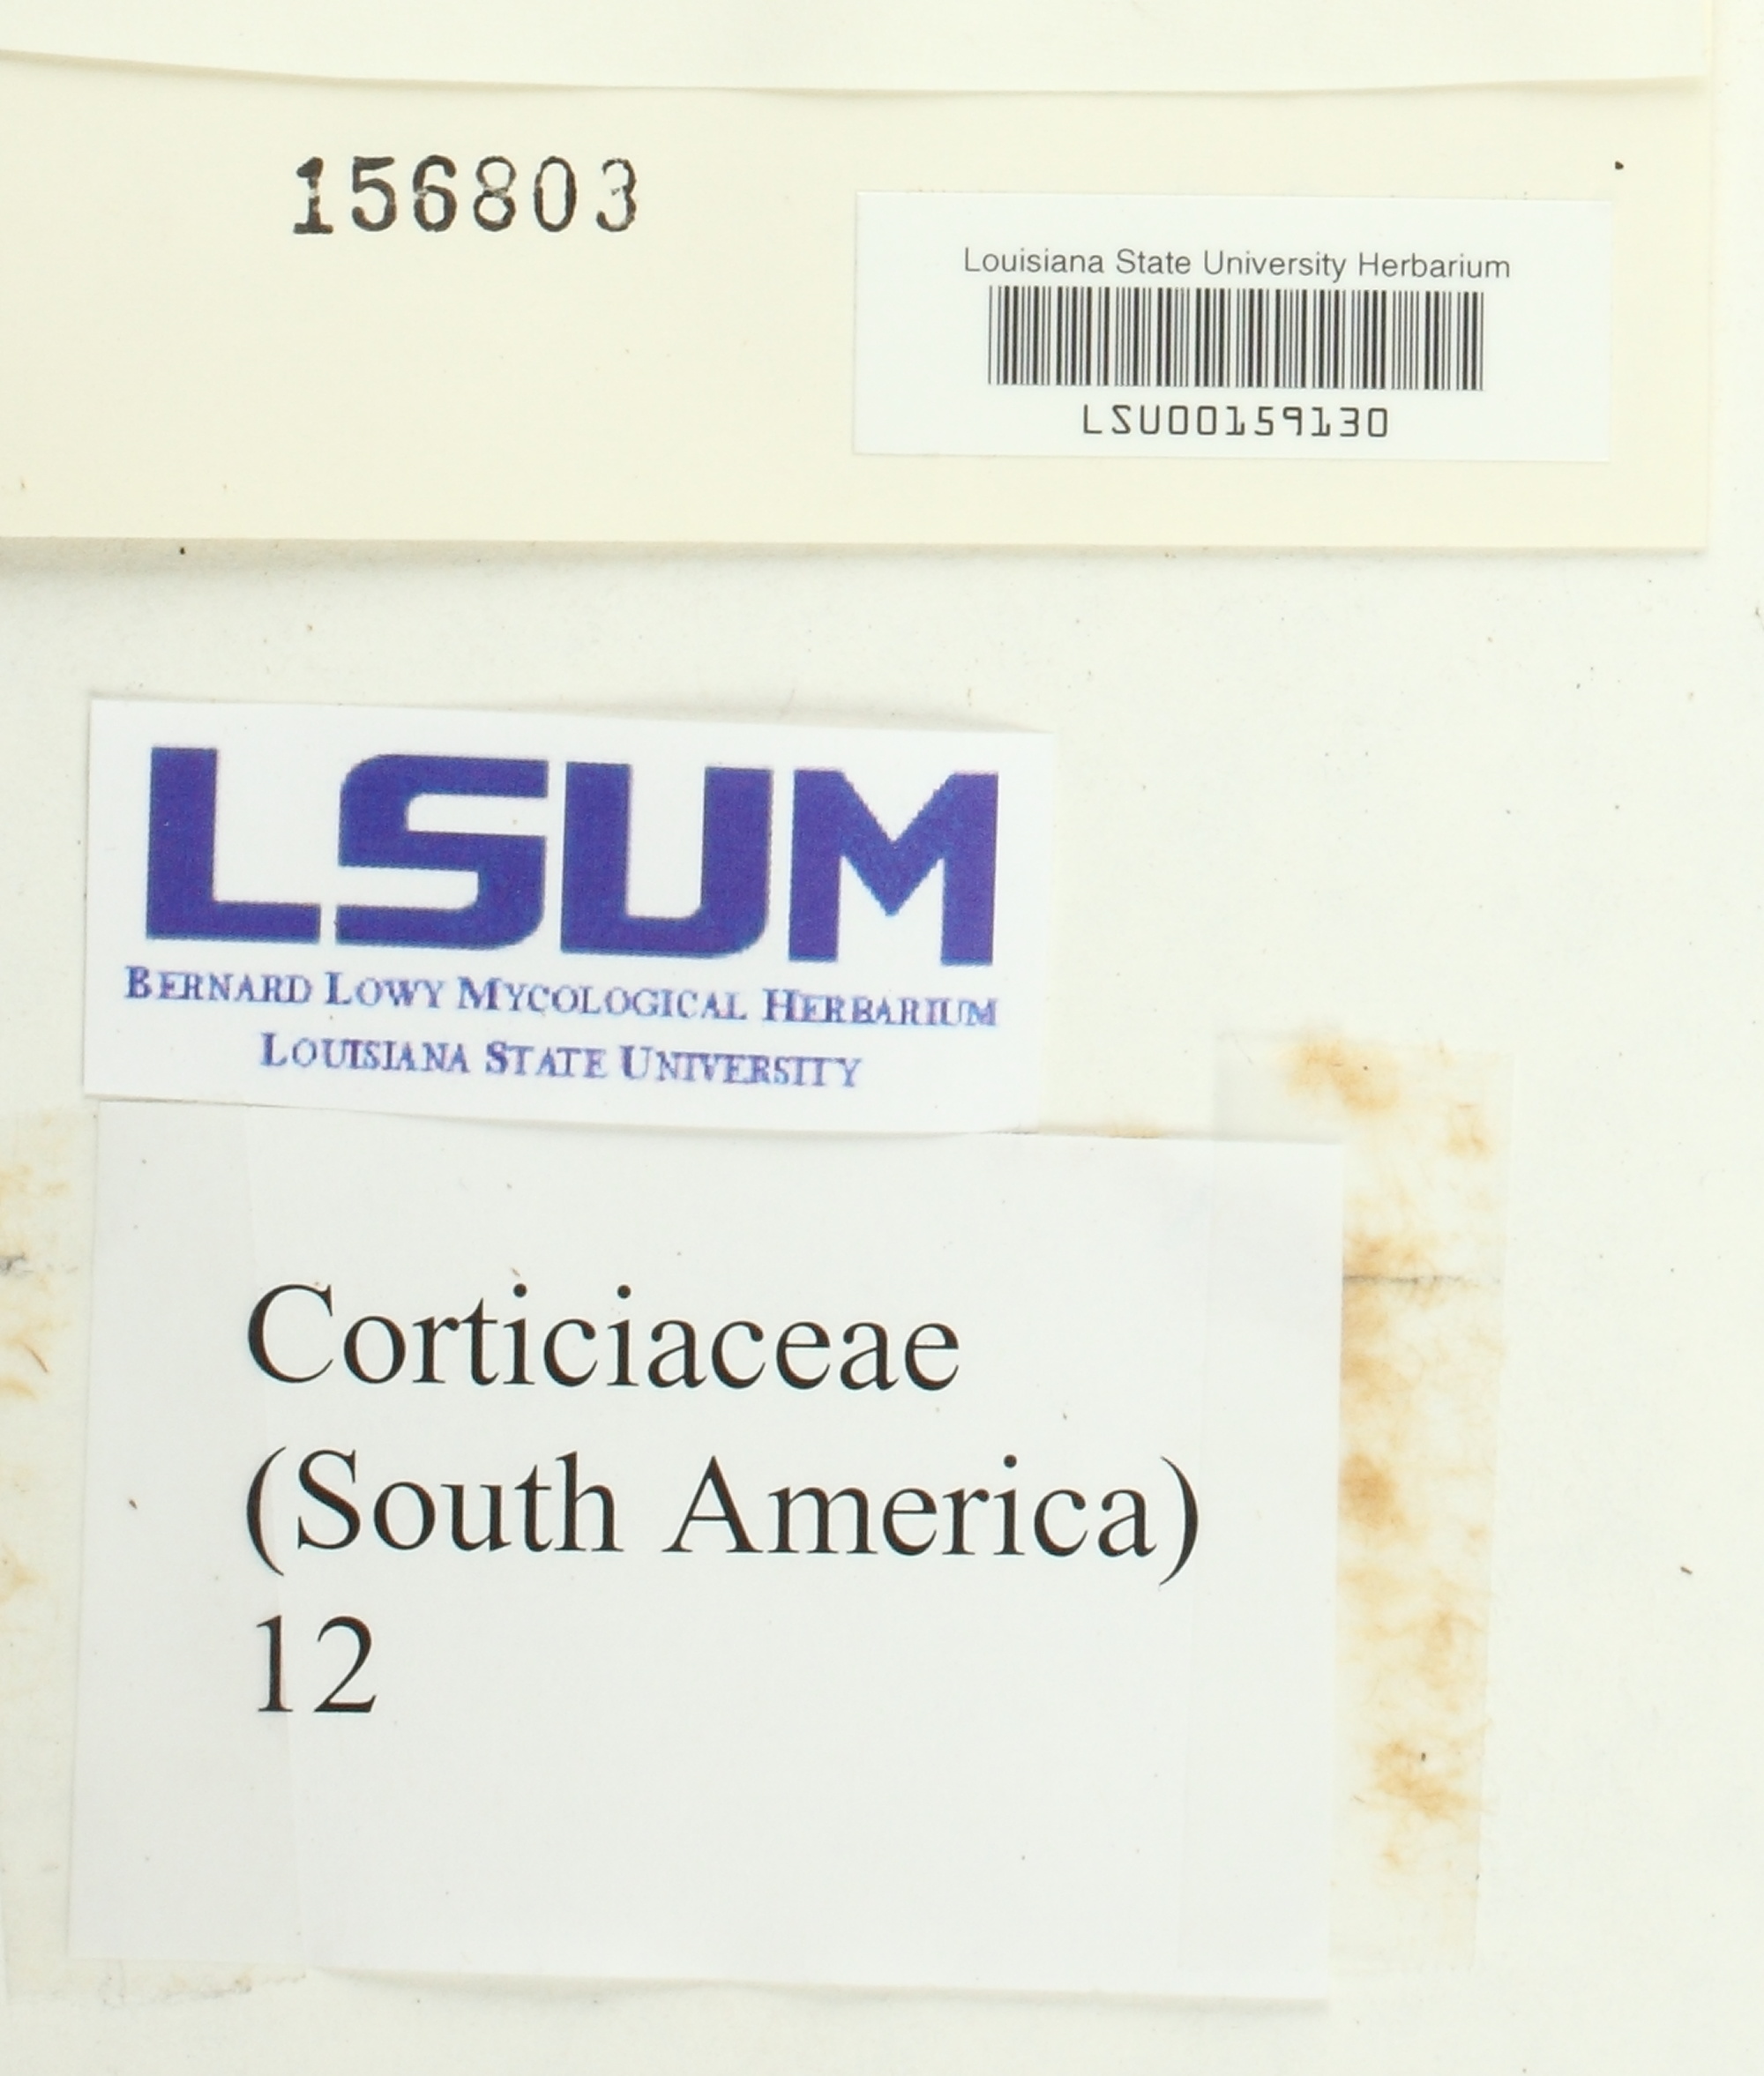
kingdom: Fungi
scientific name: Fungi
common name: Fungi
